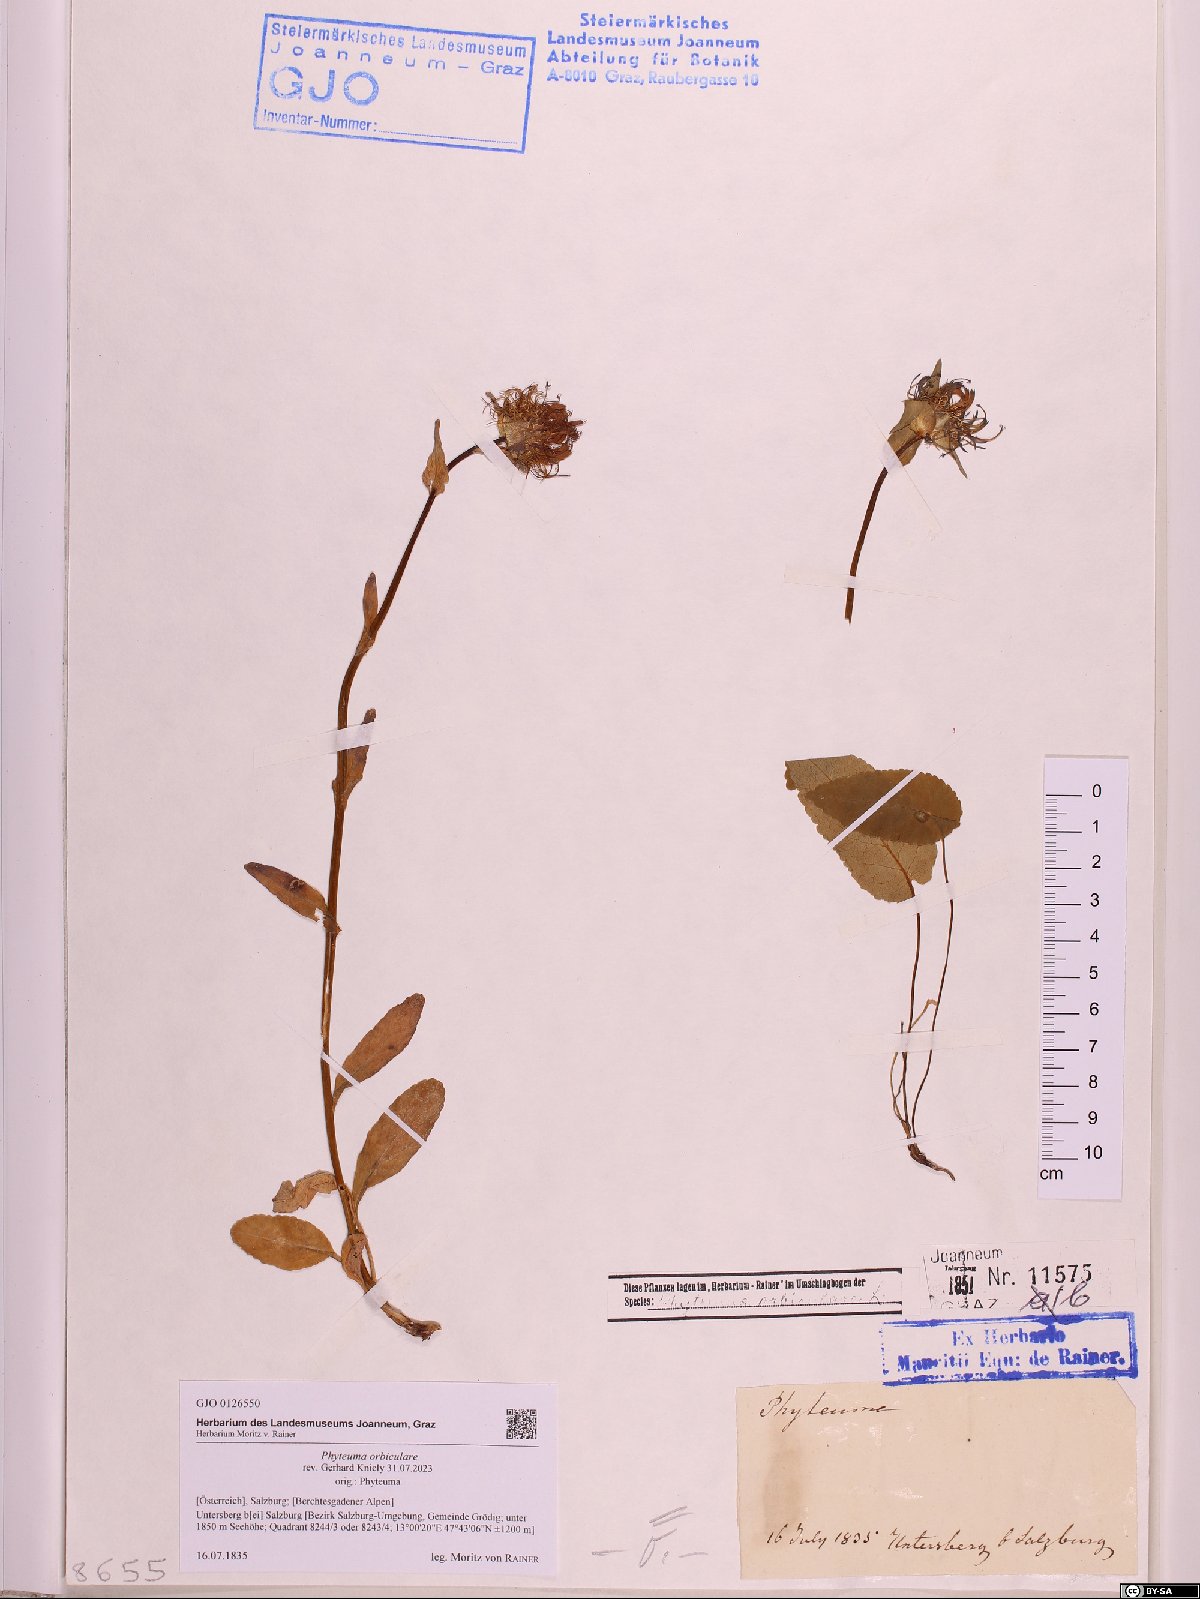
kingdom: Plantae
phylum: Tracheophyta
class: Magnoliopsida
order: Asterales
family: Campanulaceae
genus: Phyteuma
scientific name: Phyteuma orbiculare
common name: Round-headed rampion
